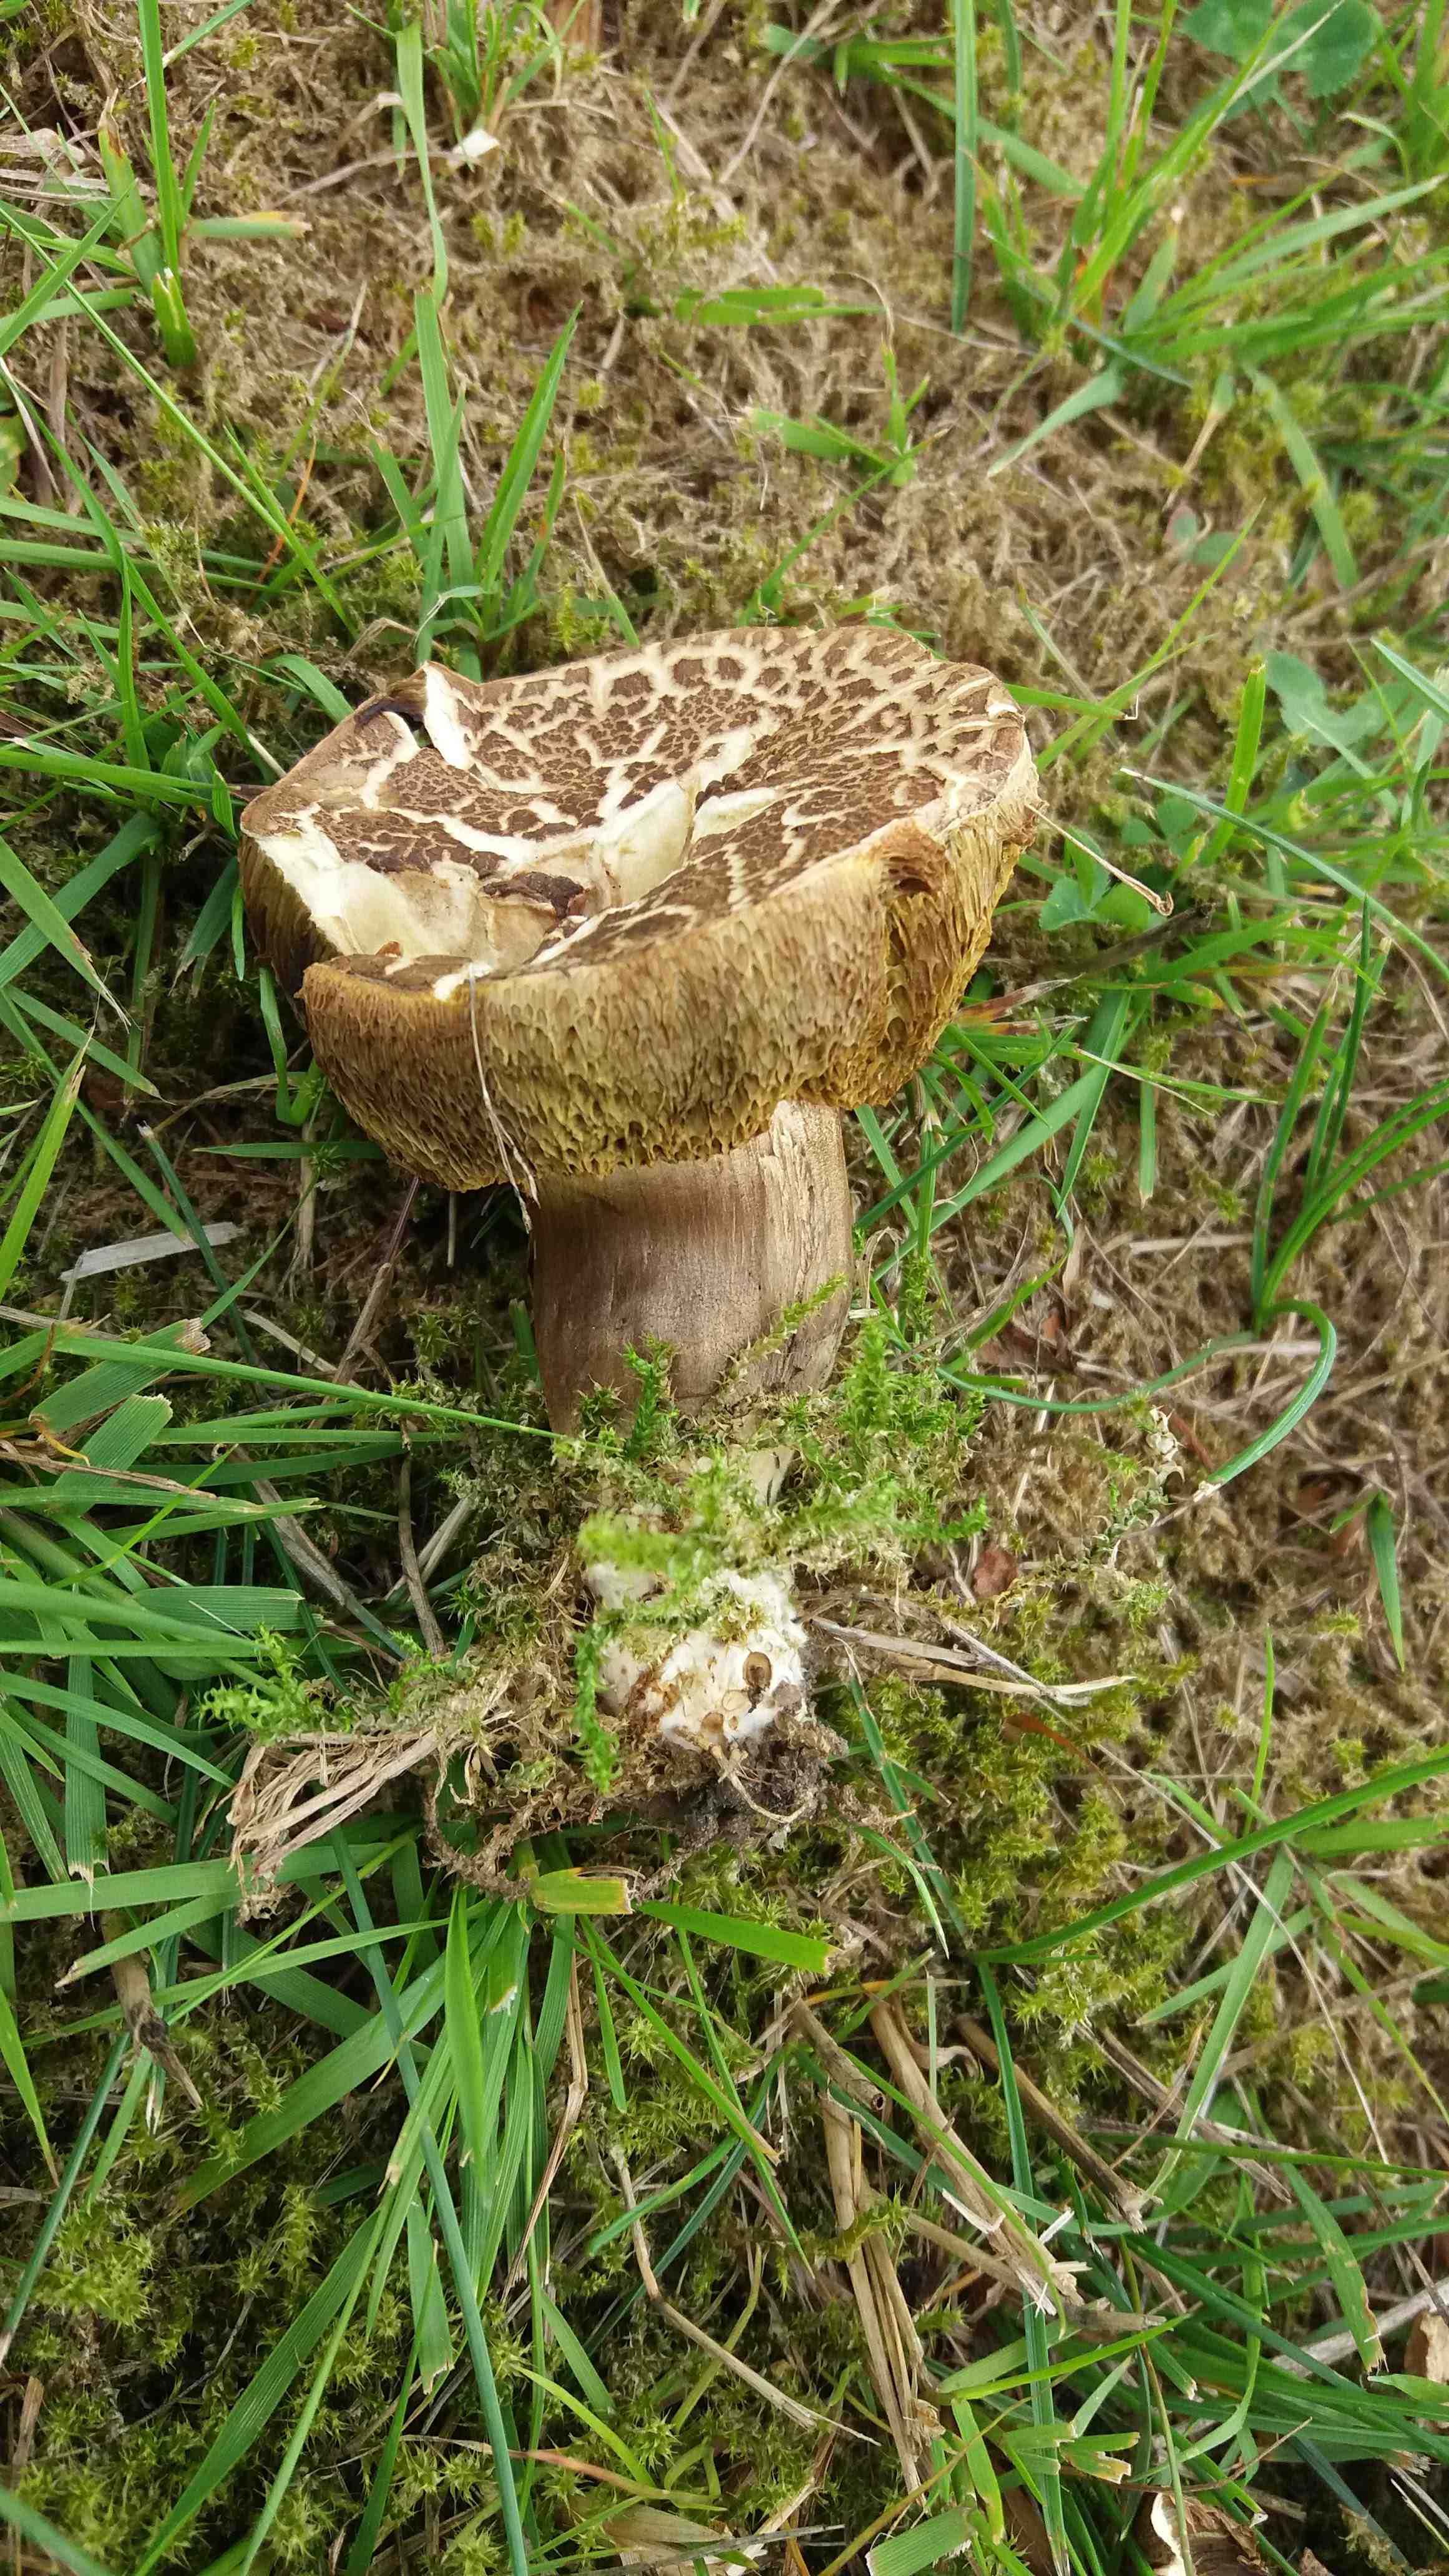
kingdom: Fungi
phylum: Basidiomycota
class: Agaricomycetes
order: Boletales
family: Boletaceae
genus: Xerocomellus
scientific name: Xerocomellus porosporus
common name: hvidsprukken rørhat
